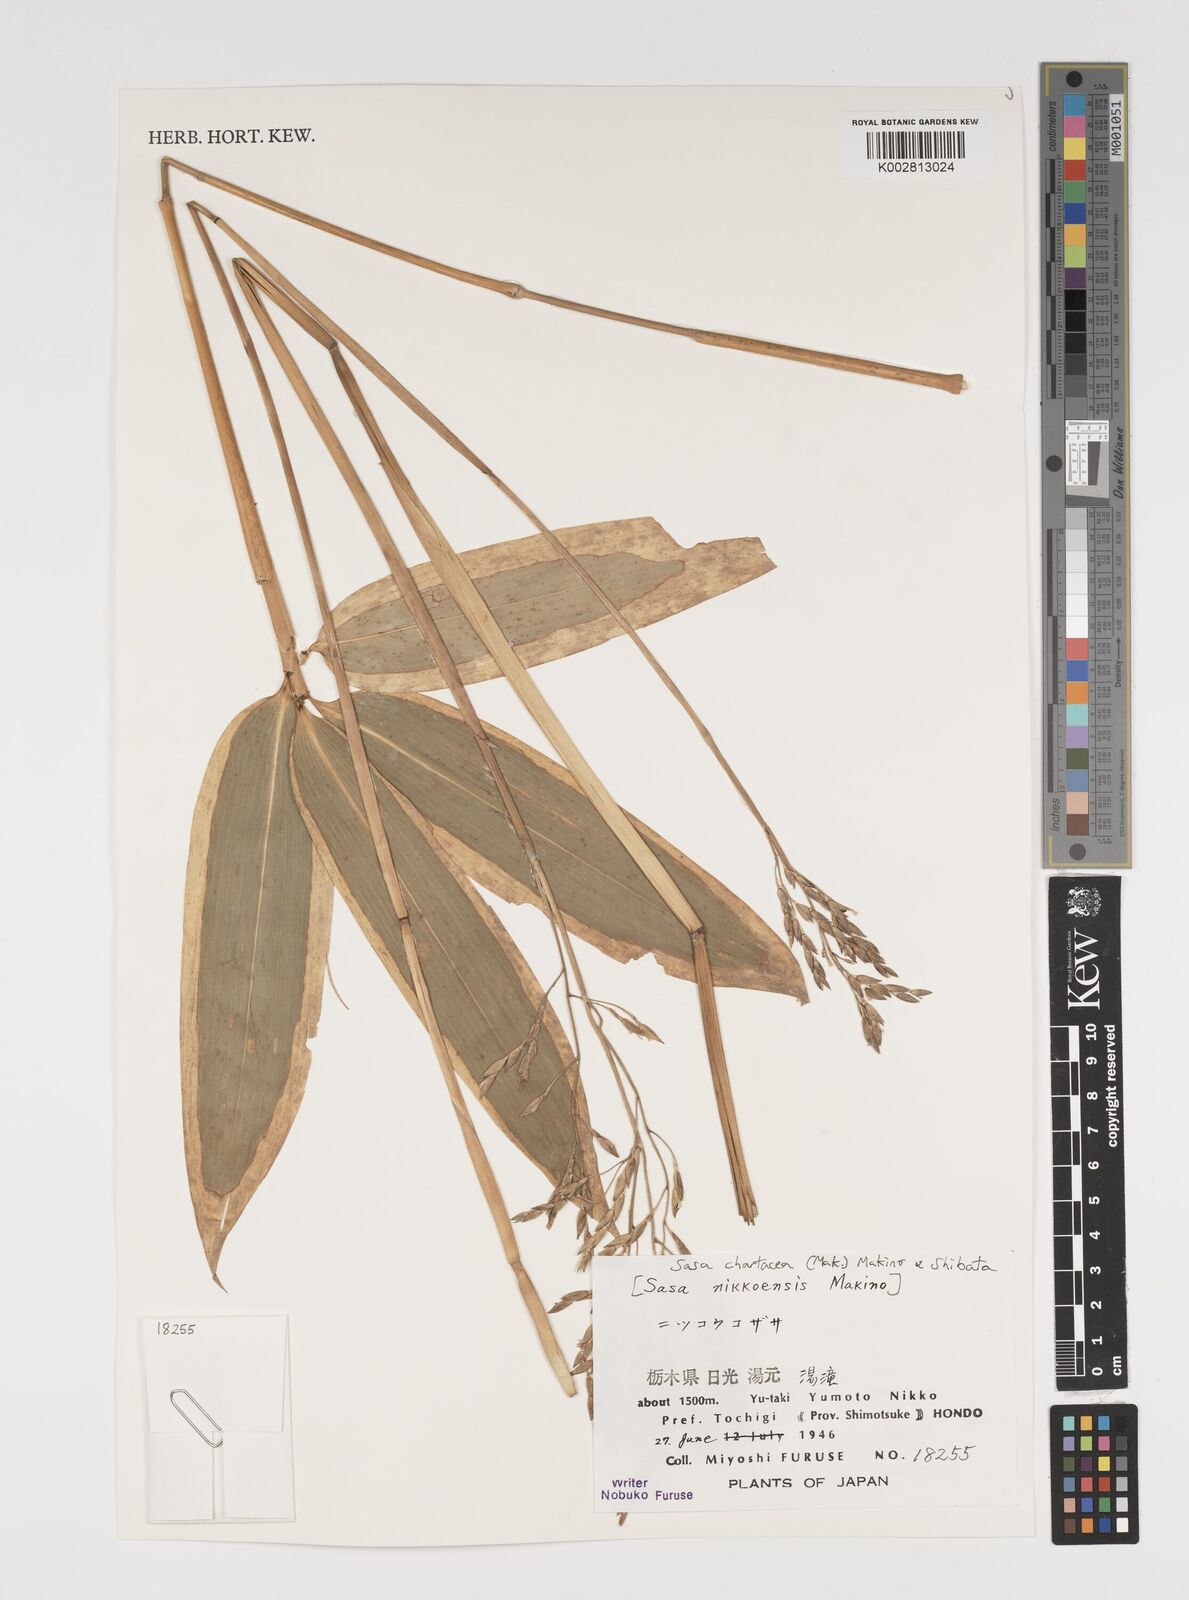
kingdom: Plantae
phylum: Tracheophyta
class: Liliopsida
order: Poales
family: Poaceae
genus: Sasa
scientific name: Sasa chartacea
